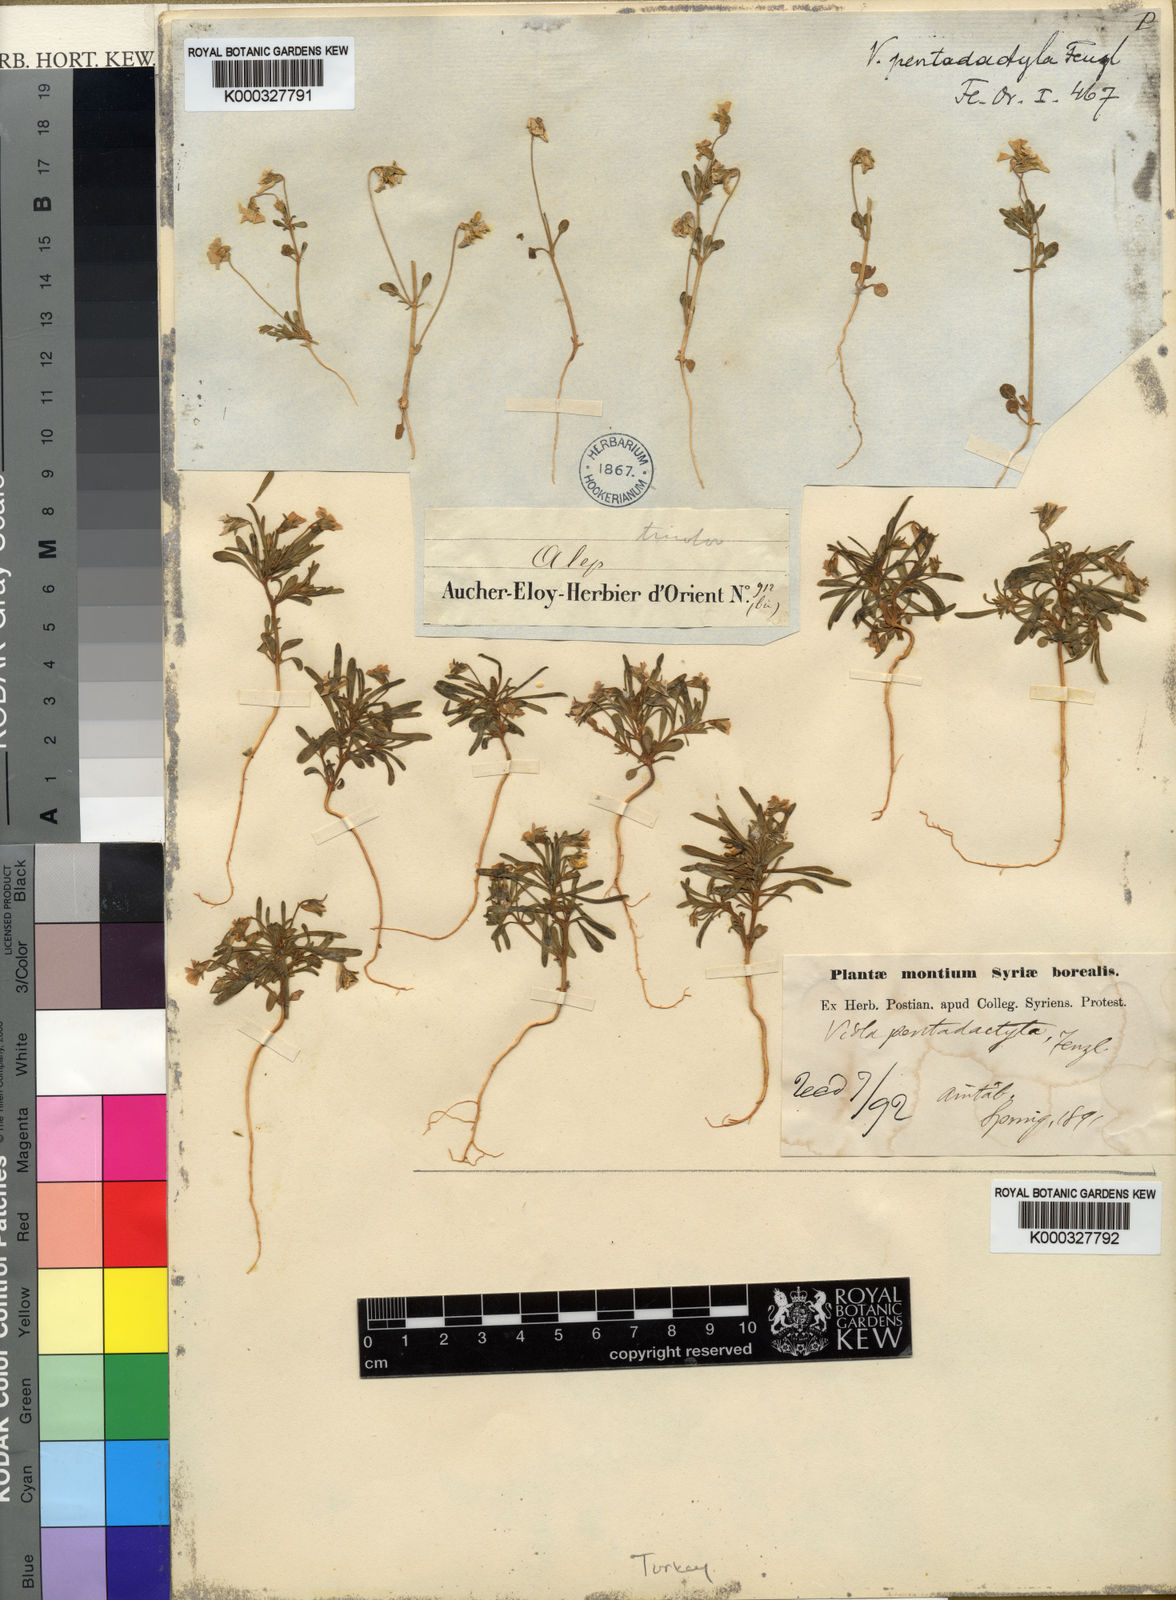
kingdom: Plantae
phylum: Tracheophyta
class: Magnoliopsida
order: Malpighiales
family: Violaceae
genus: Viola
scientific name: Viola pentadactyla
